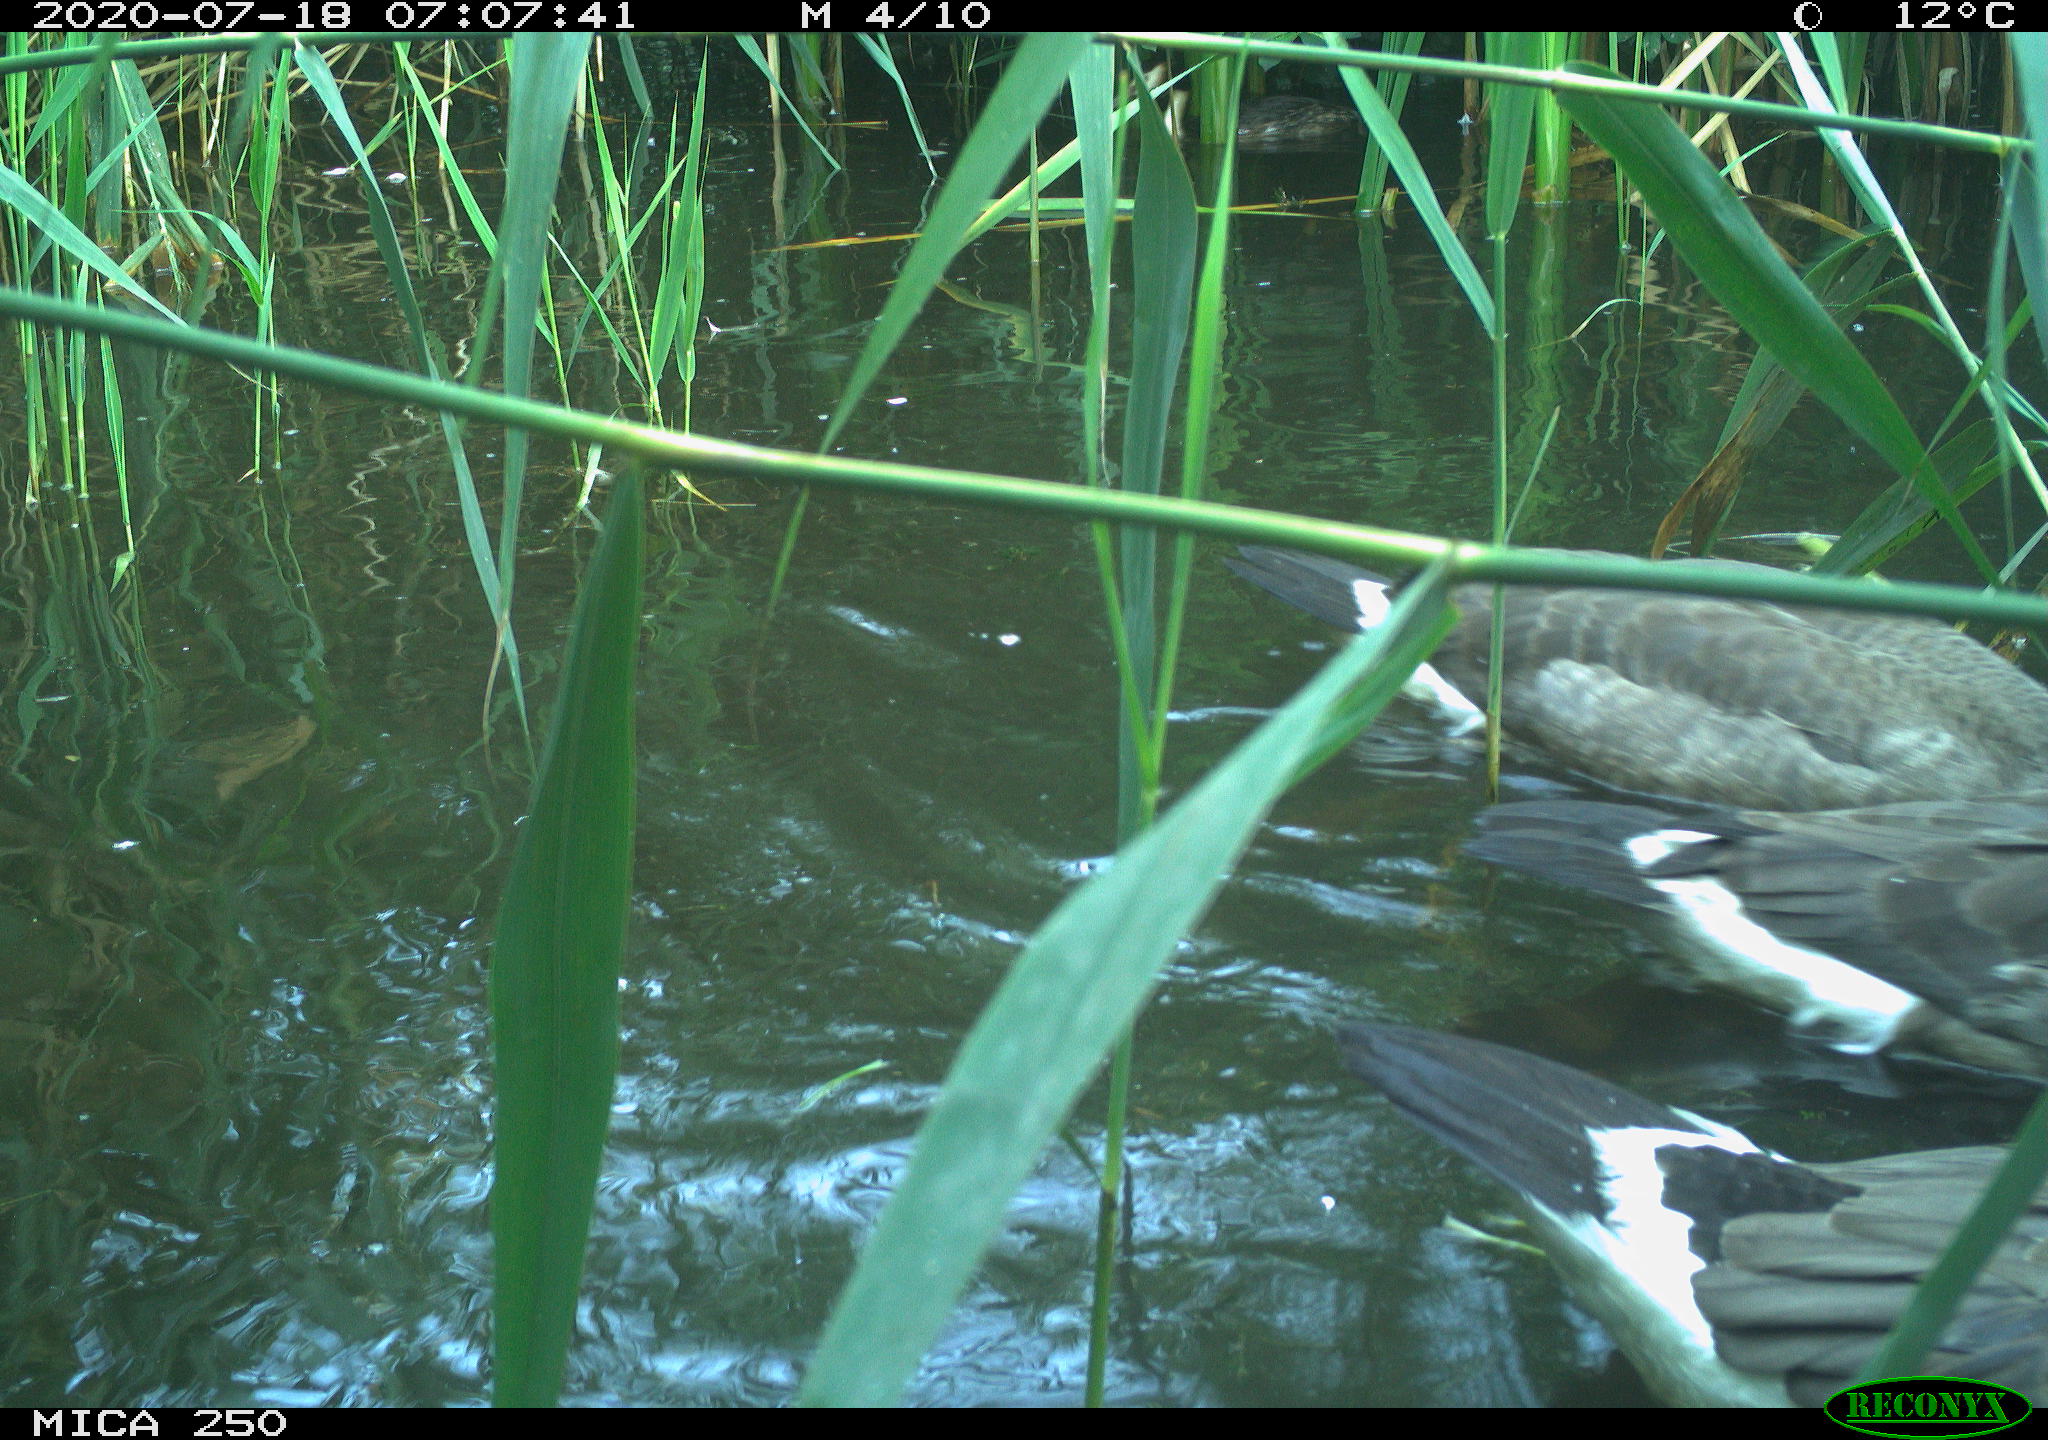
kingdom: Animalia
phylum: Chordata
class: Aves
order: Podicipediformes
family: Podicipedidae
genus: Podiceps
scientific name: Podiceps cristatus
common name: Great crested grebe
